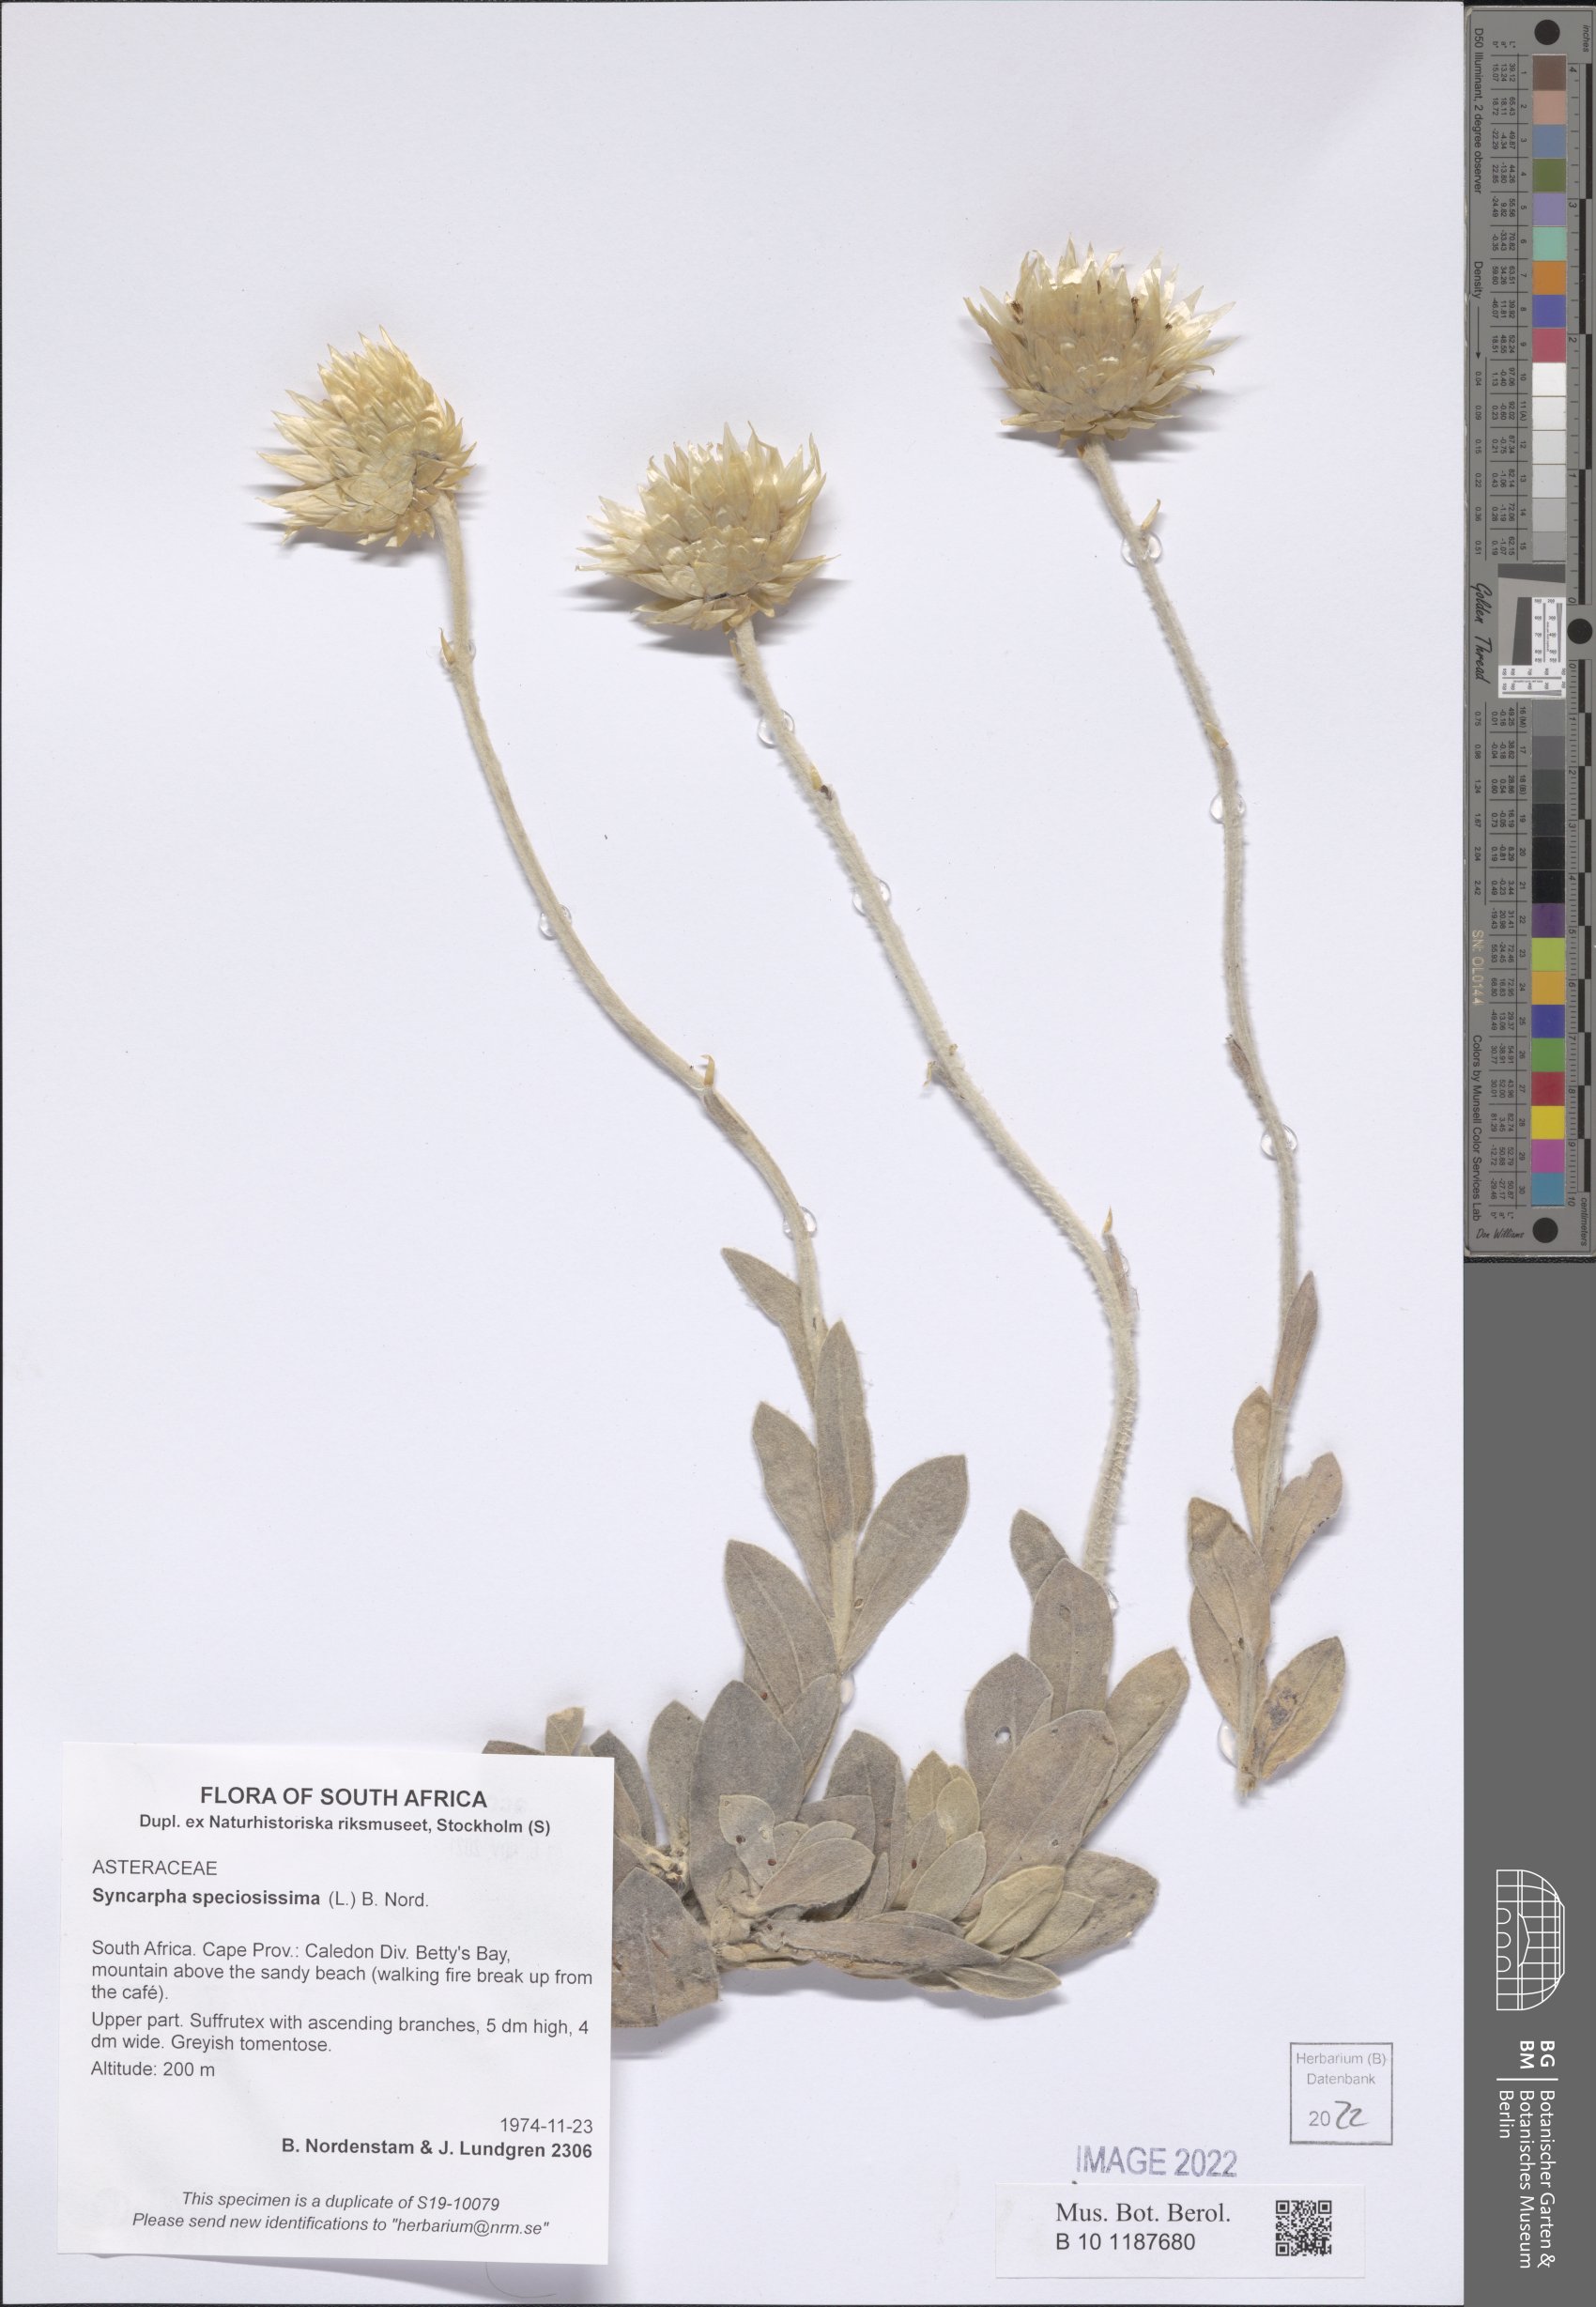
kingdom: Plantae
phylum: Tracheophyta
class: Magnoliopsida
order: Asterales
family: Asteraceae
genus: Syncarpha
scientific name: Syncarpha speciosissima
